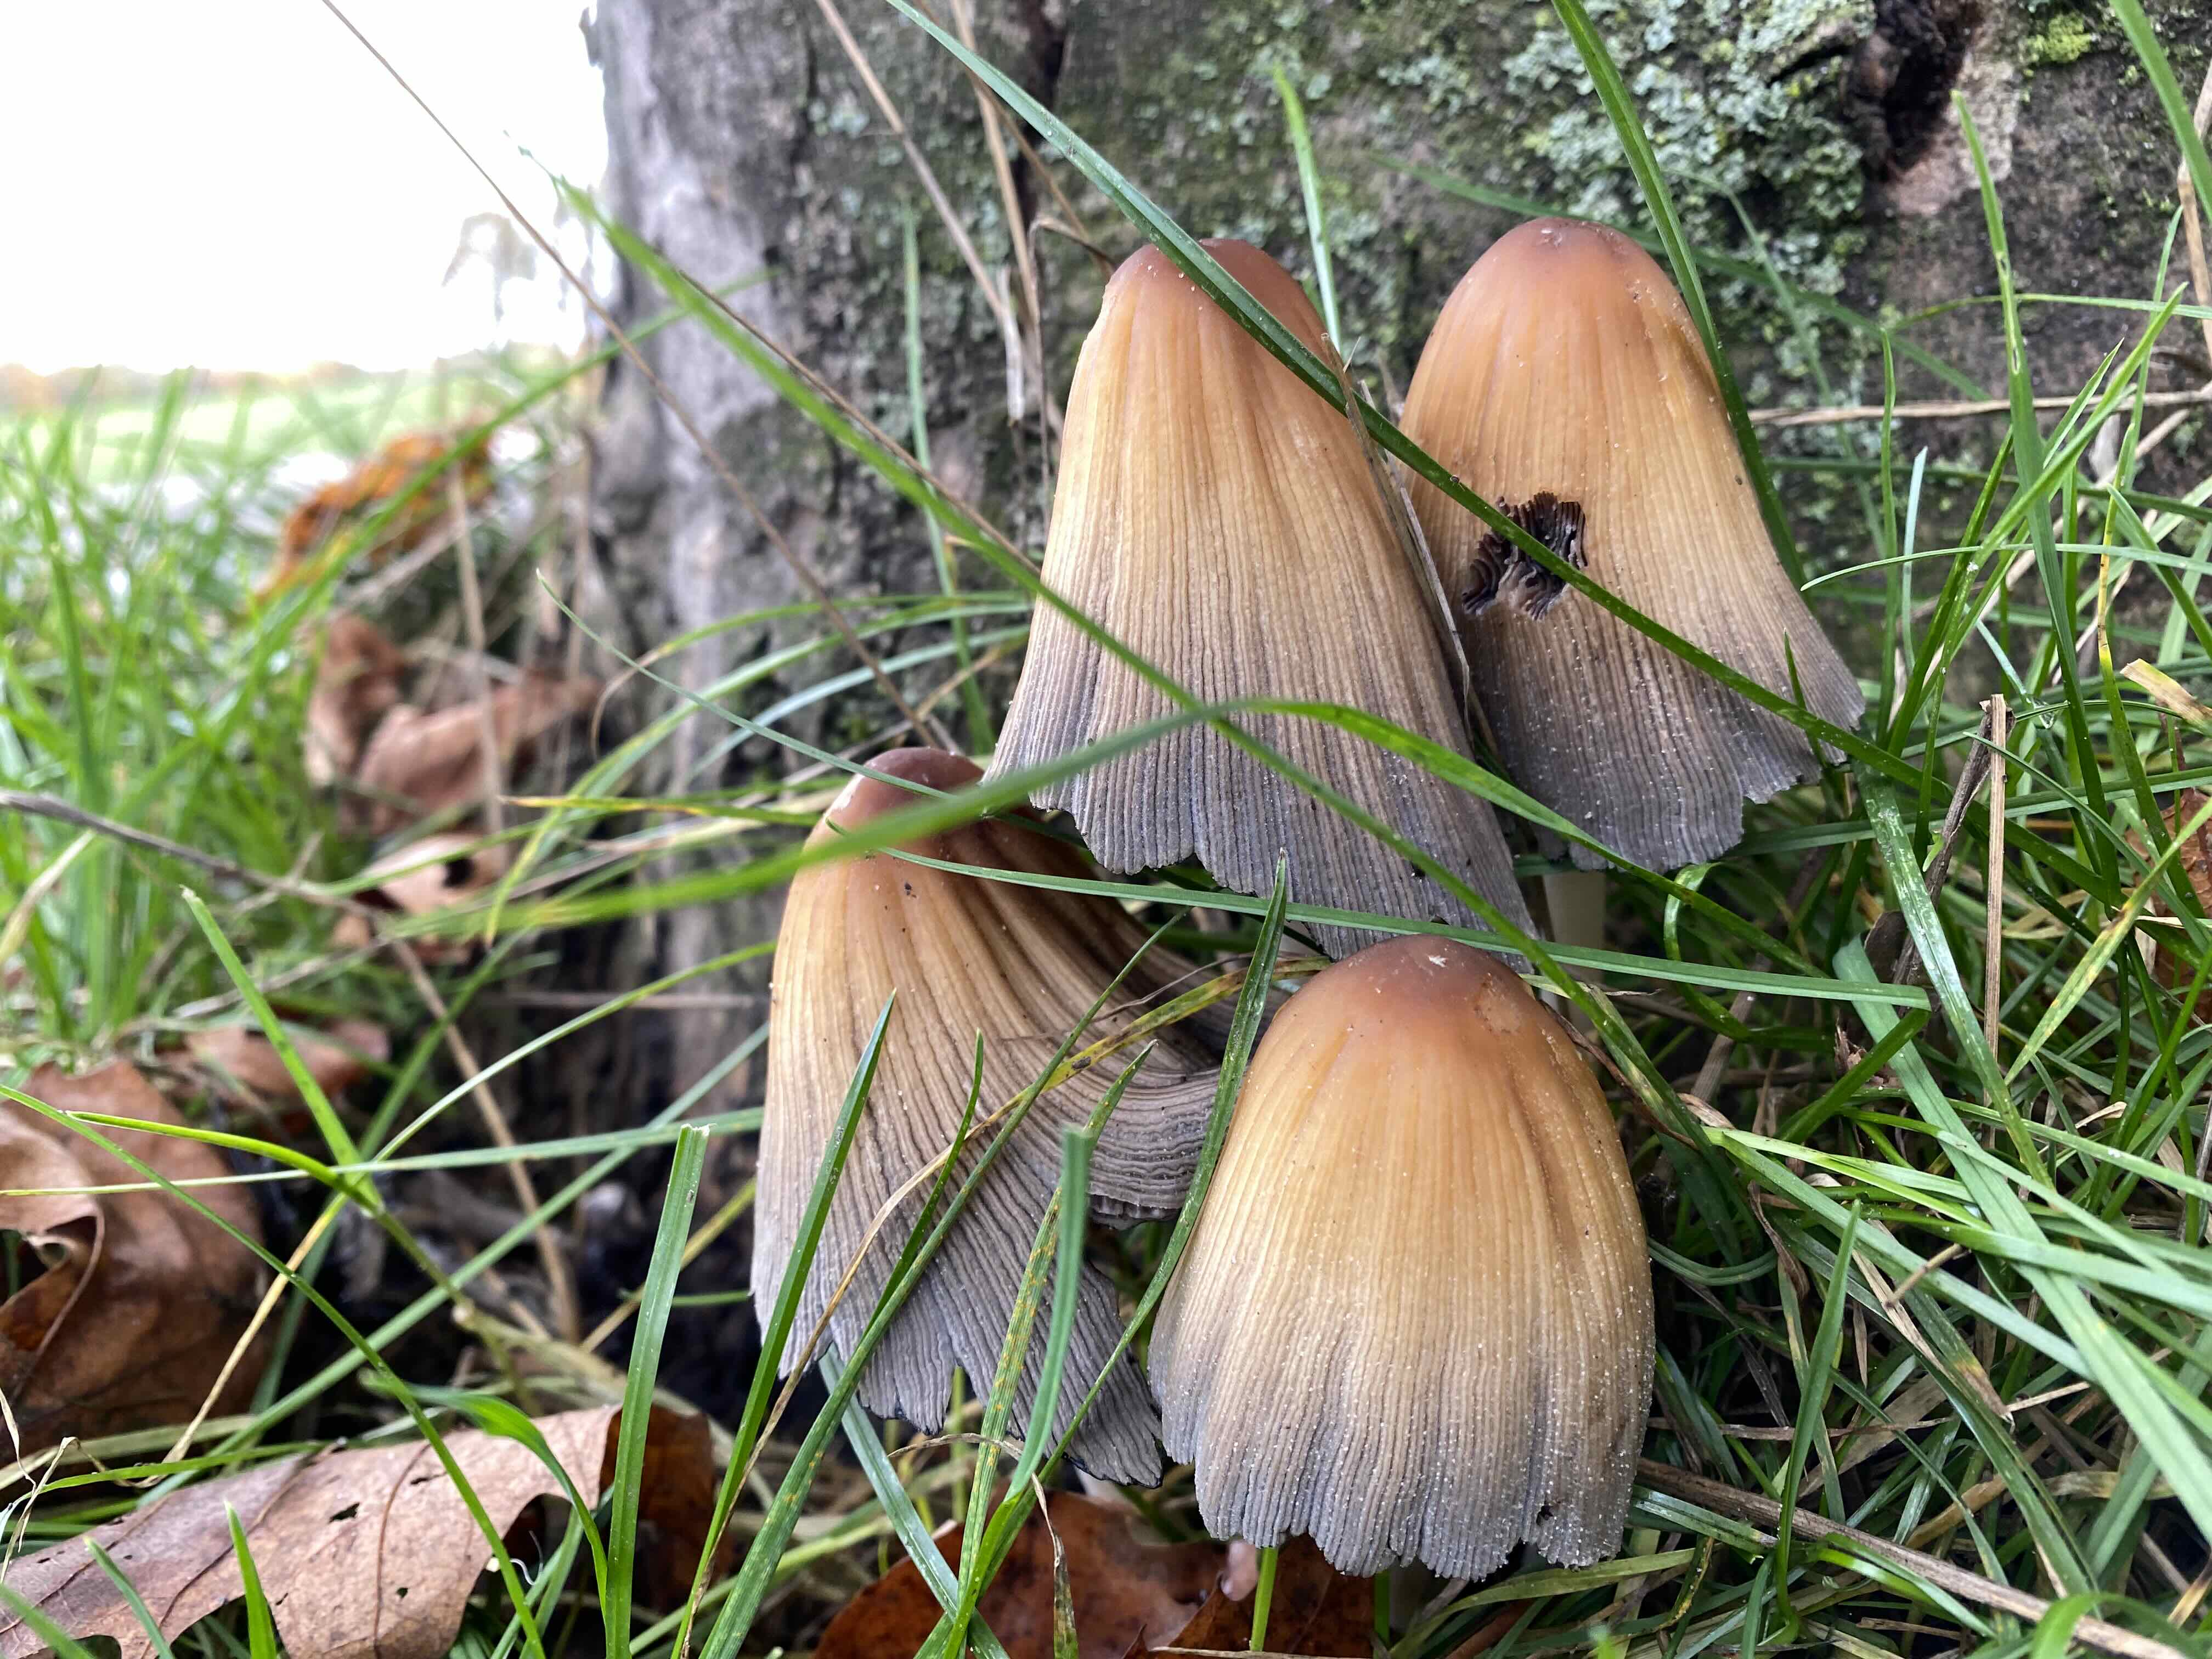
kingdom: Fungi
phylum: Basidiomycota
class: Agaricomycetes
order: Agaricales
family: Psathyrellaceae
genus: Coprinellus
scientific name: Coprinellus micaceus
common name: glimmer-blækhat
